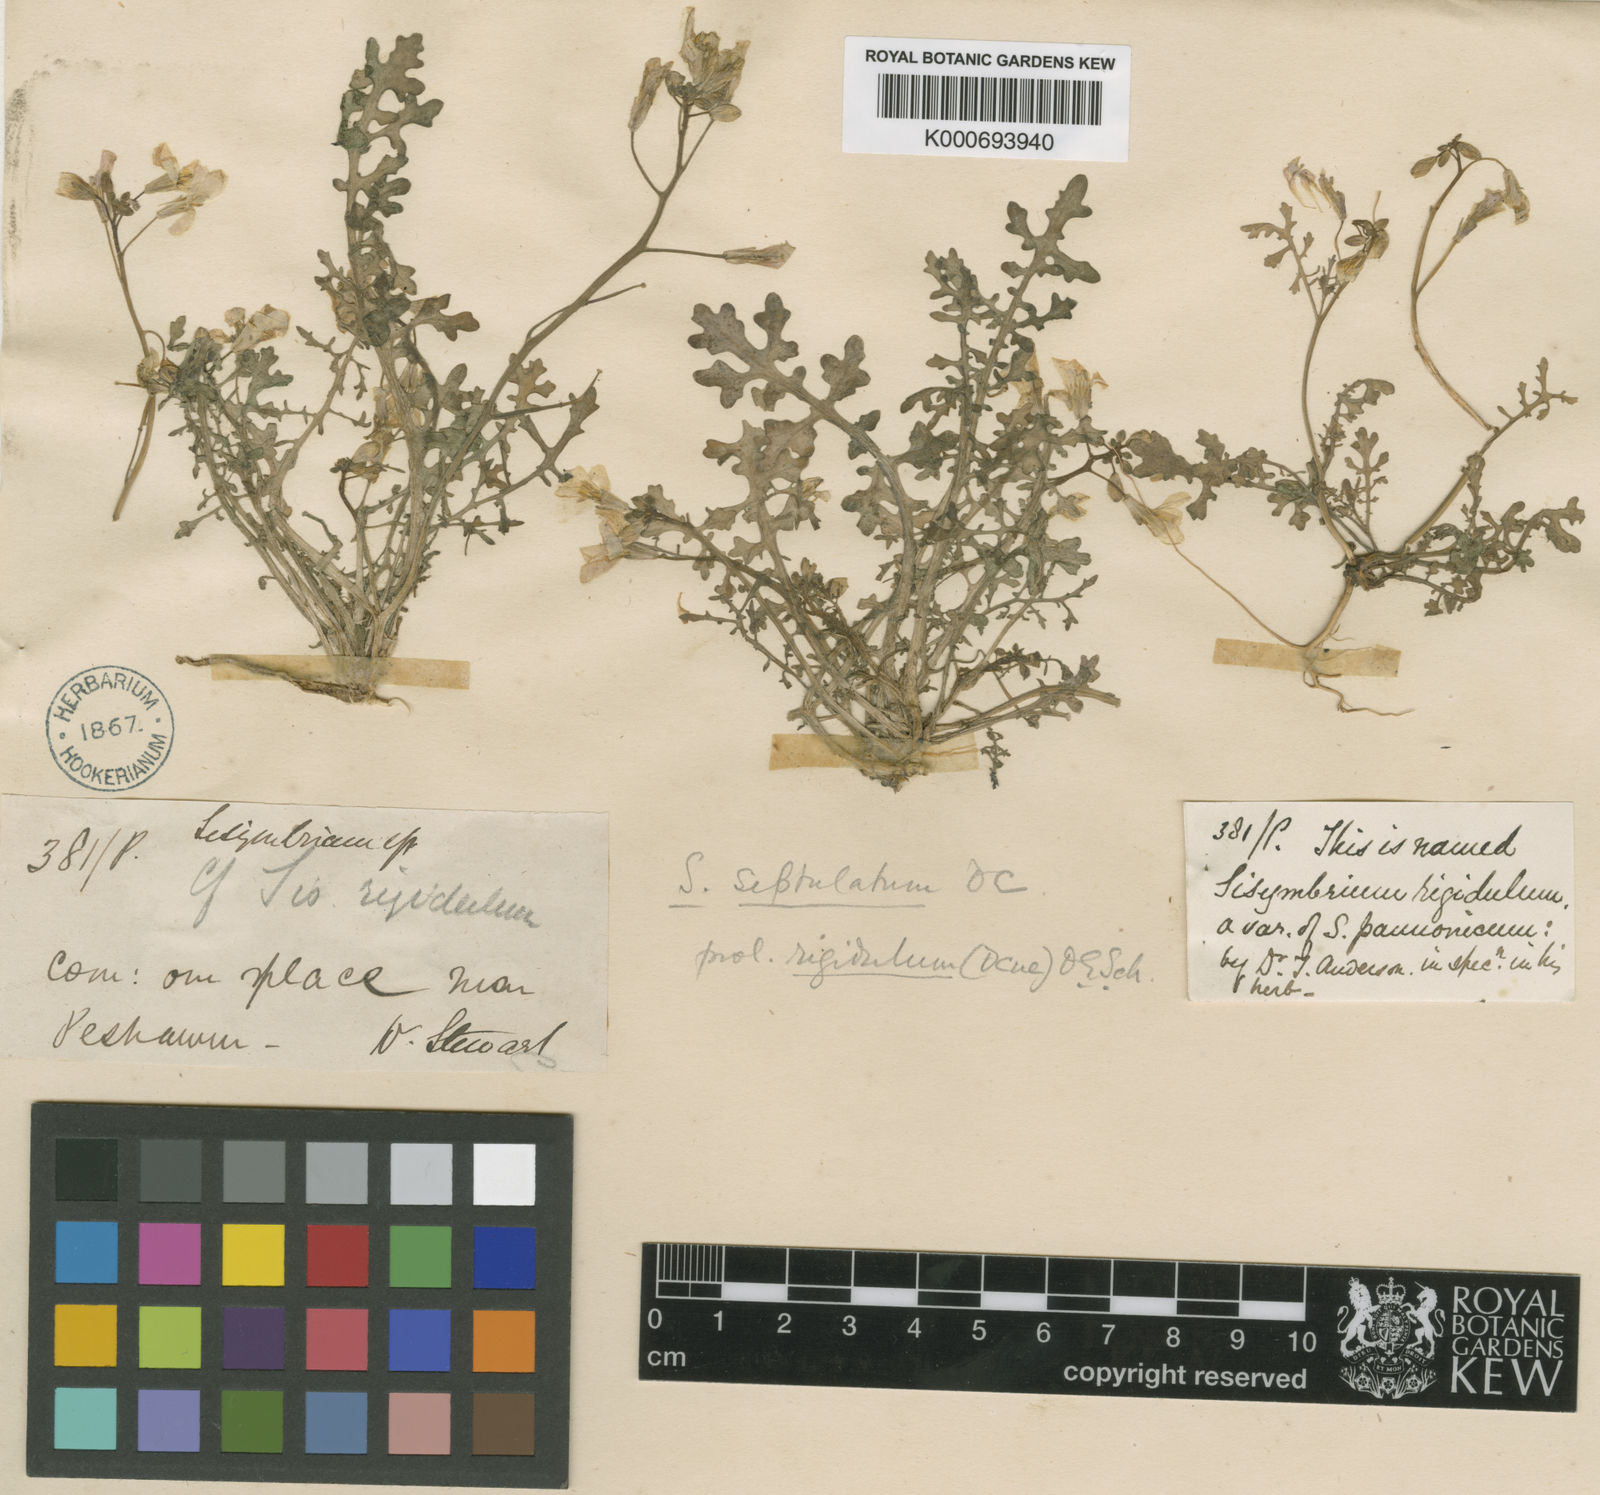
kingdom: Plantae
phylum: Tracheophyta
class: Magnoliopsida
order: Brassicales
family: Brassicaceae
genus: Sisymbrium
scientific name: Sisymbrium
